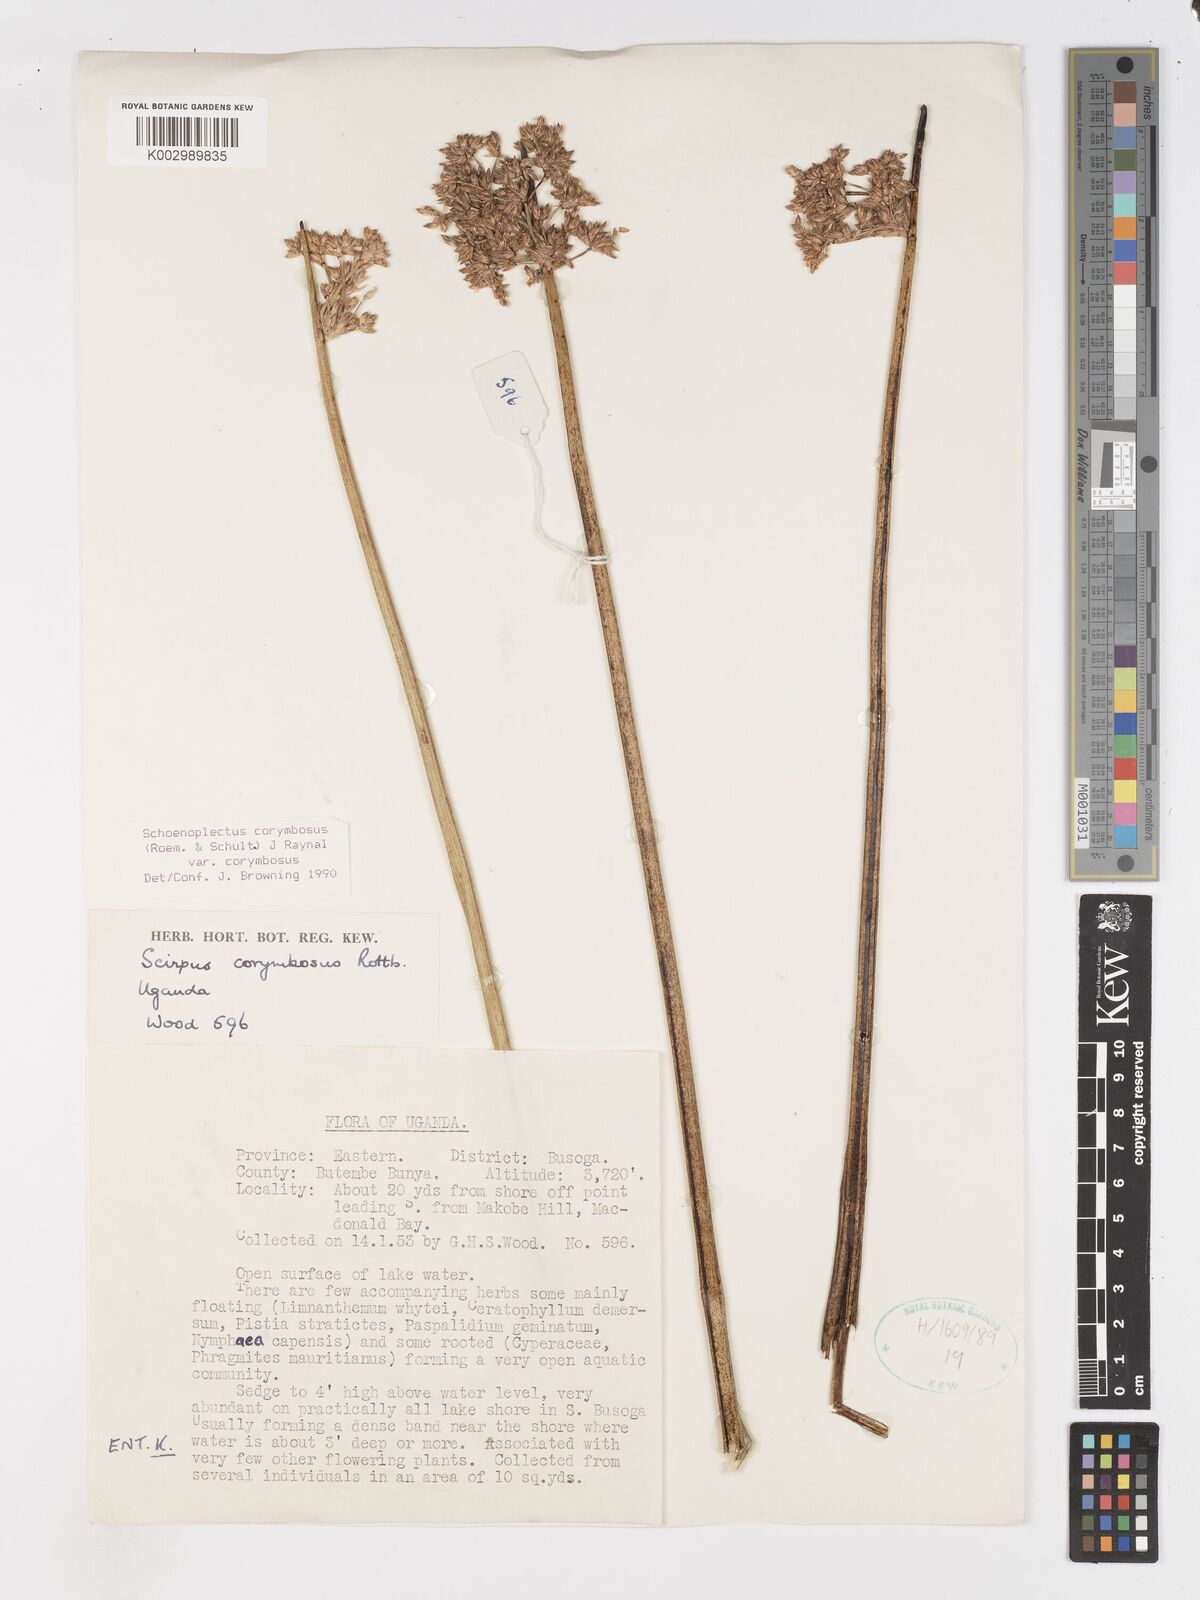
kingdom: Plantae
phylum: Tracheophyta
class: Liliopsida
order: Poales
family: Cyperaceae
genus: Schoenoplectiella
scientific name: Schoenoplectiella corymbosa
